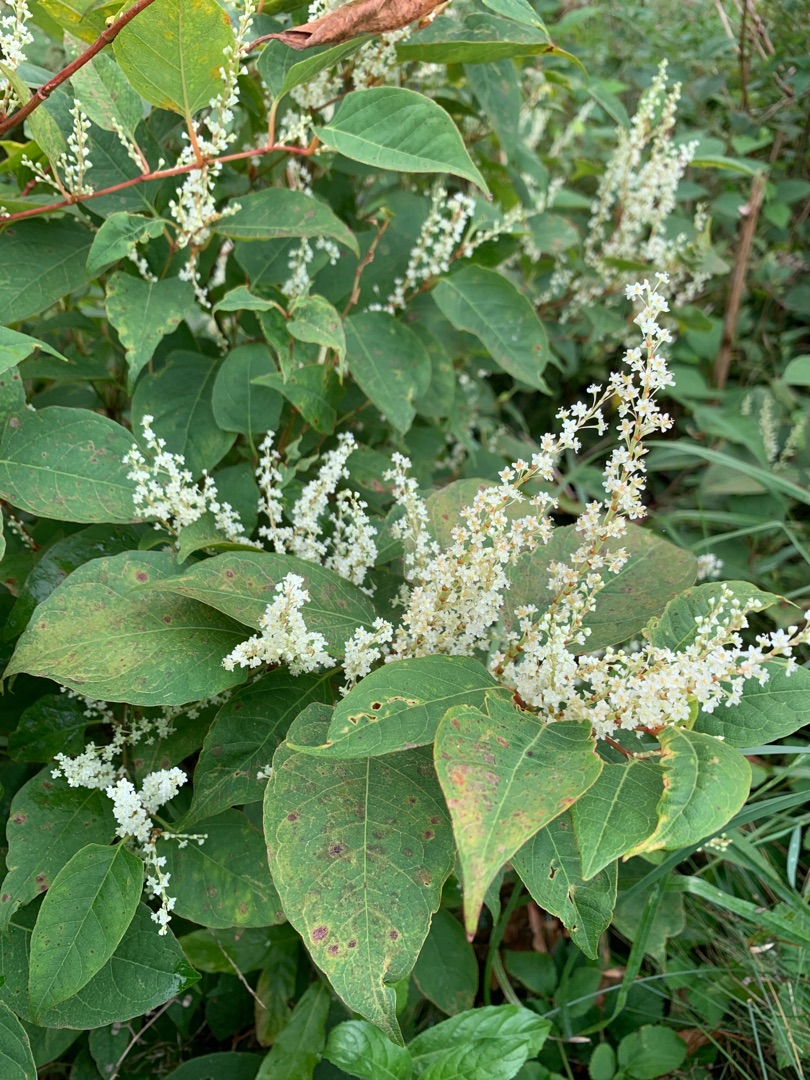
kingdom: Plantae
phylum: Tracheophyta
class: Magnoliopsida
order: Caryophyllales
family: Polygonaceae
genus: Reynoutria
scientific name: Reynoutria japonica
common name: Japan-pileurt
